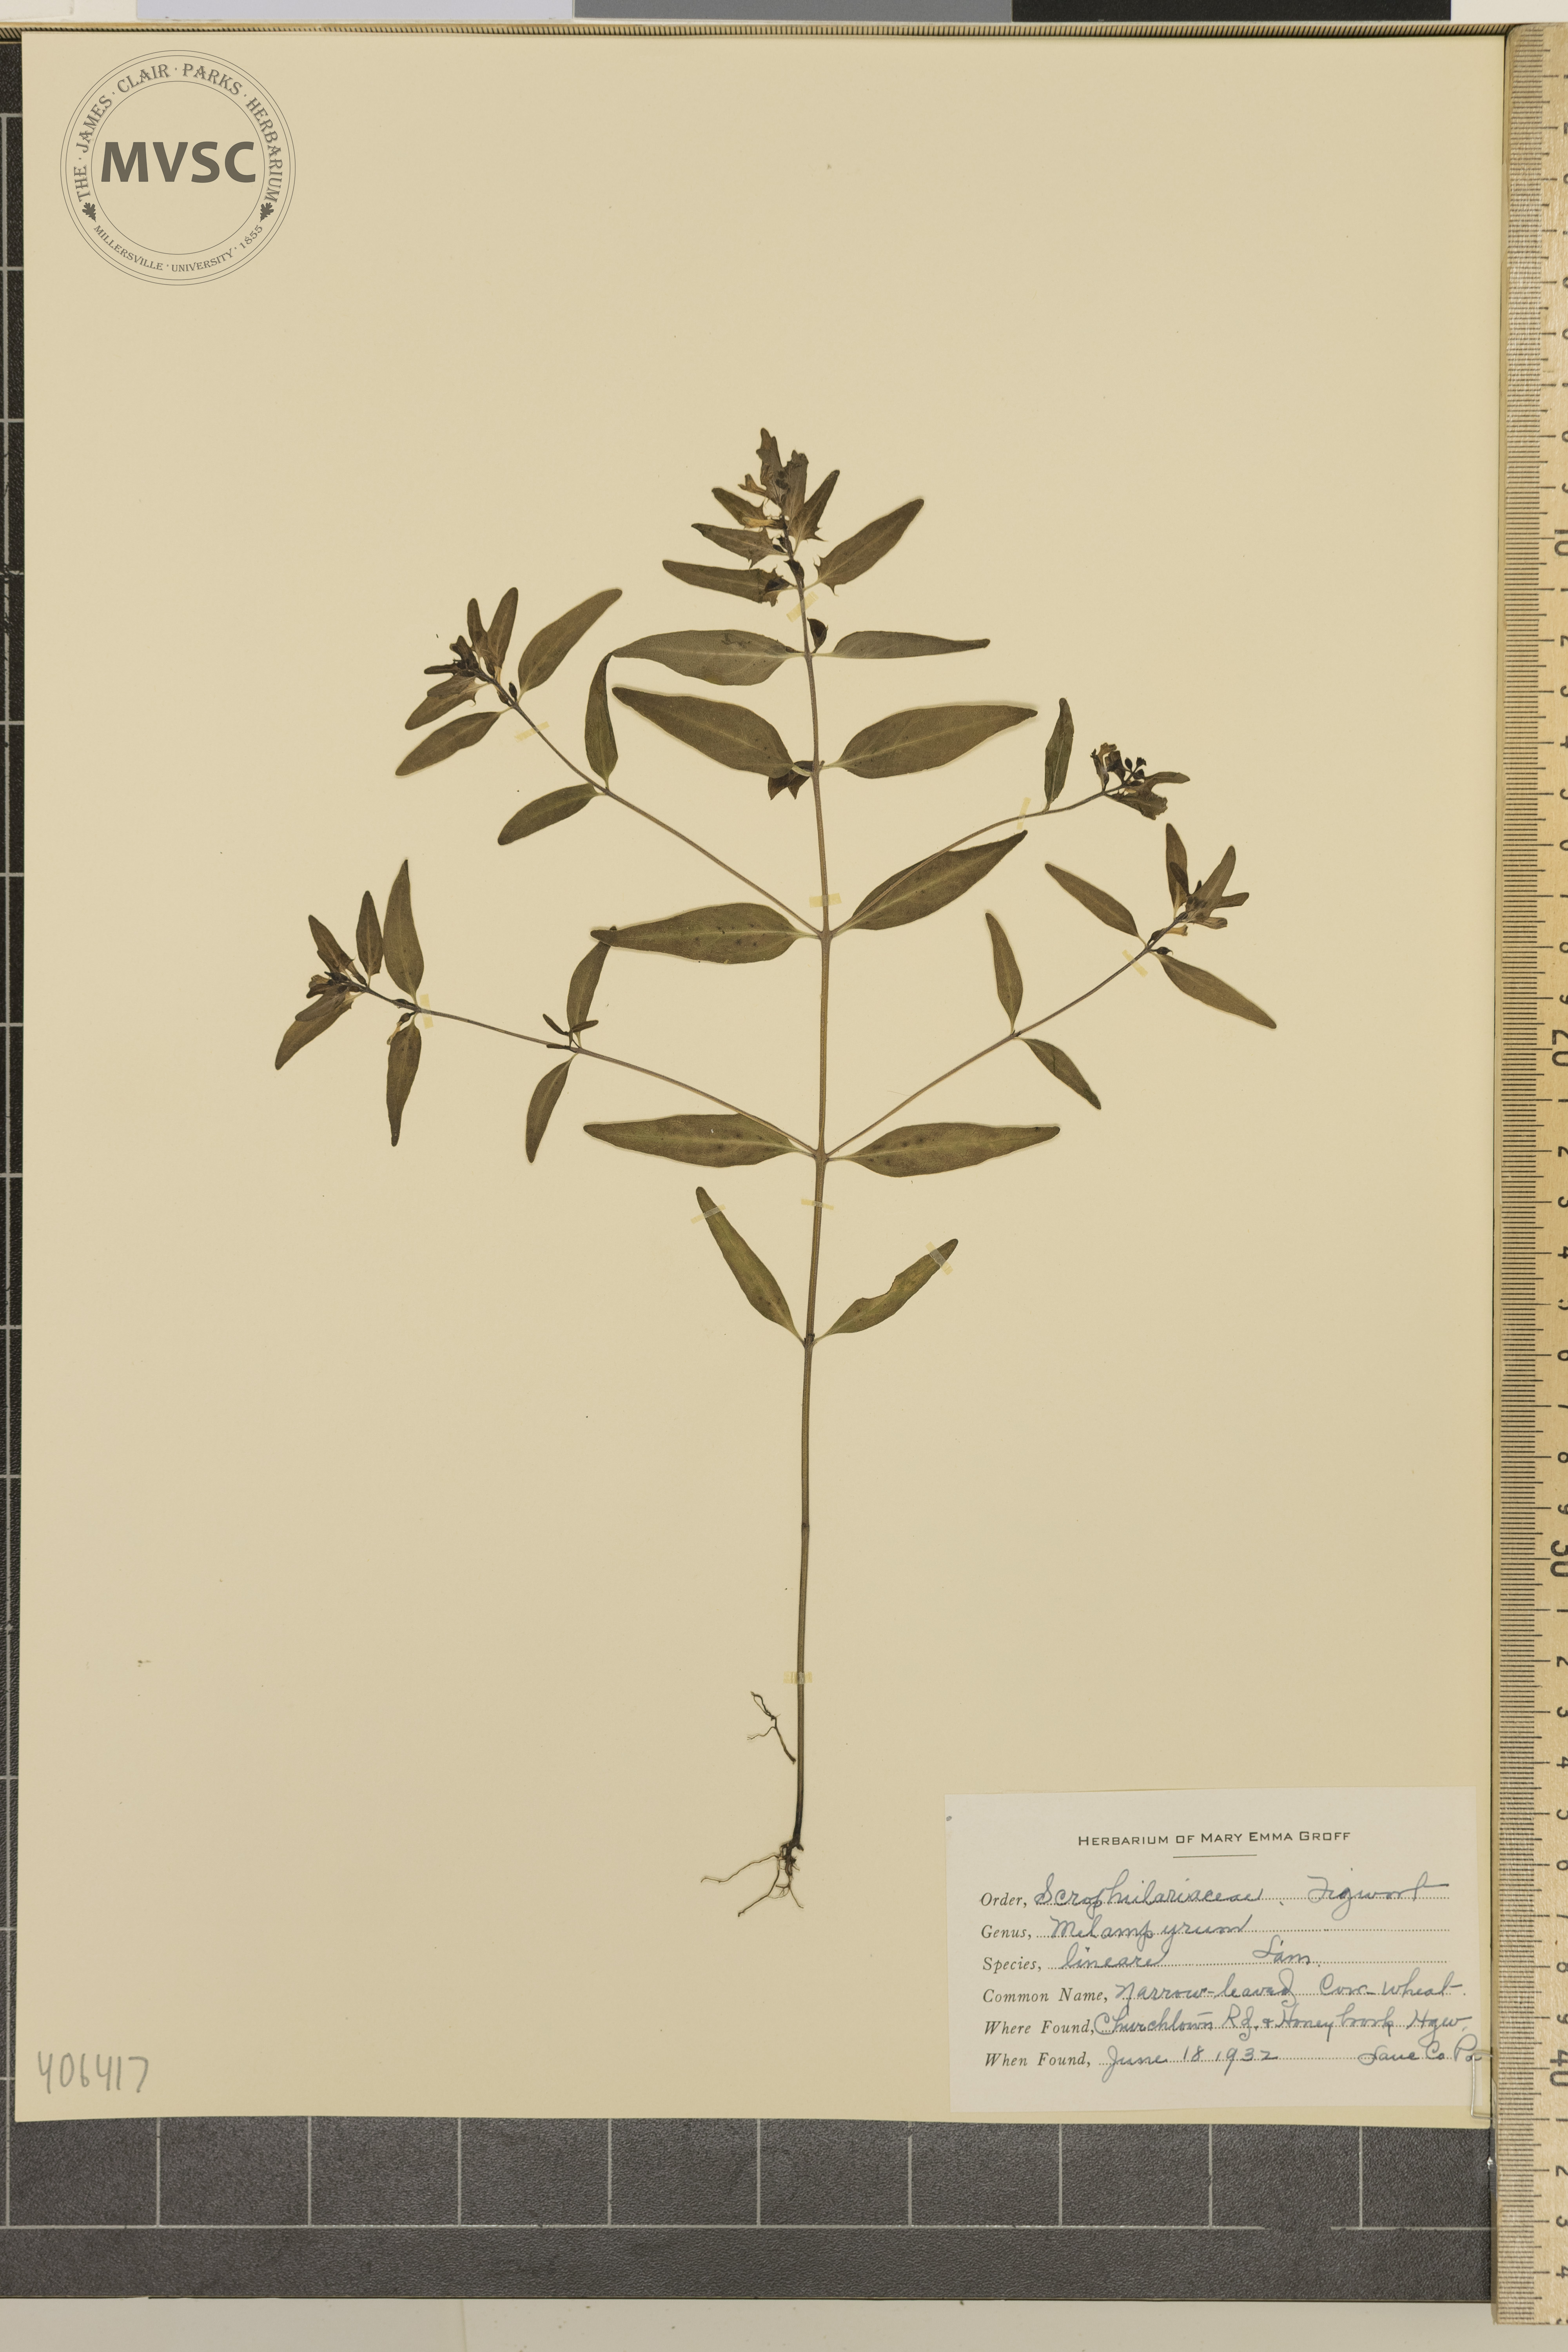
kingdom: Plantae
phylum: Tracheophyta
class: Magnoliopsida
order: Lamiales
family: Orobanchaceae
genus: Melampyrum
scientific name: Melampyrum lineare
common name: Narrow-leaved Cow-wheat
